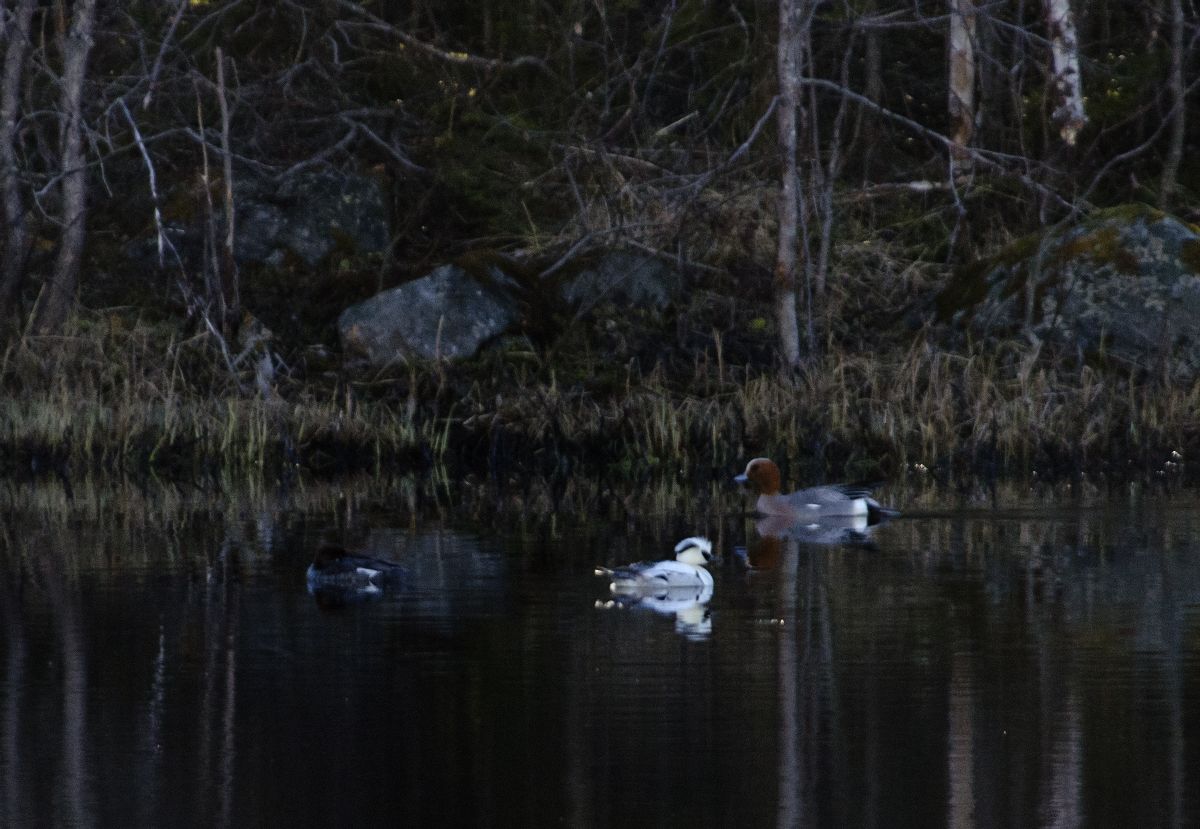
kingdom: Animalia
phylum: Chordata
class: Aves
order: Anseriformes
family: Anatidae
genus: Mergellus
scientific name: Mergellus albellus
